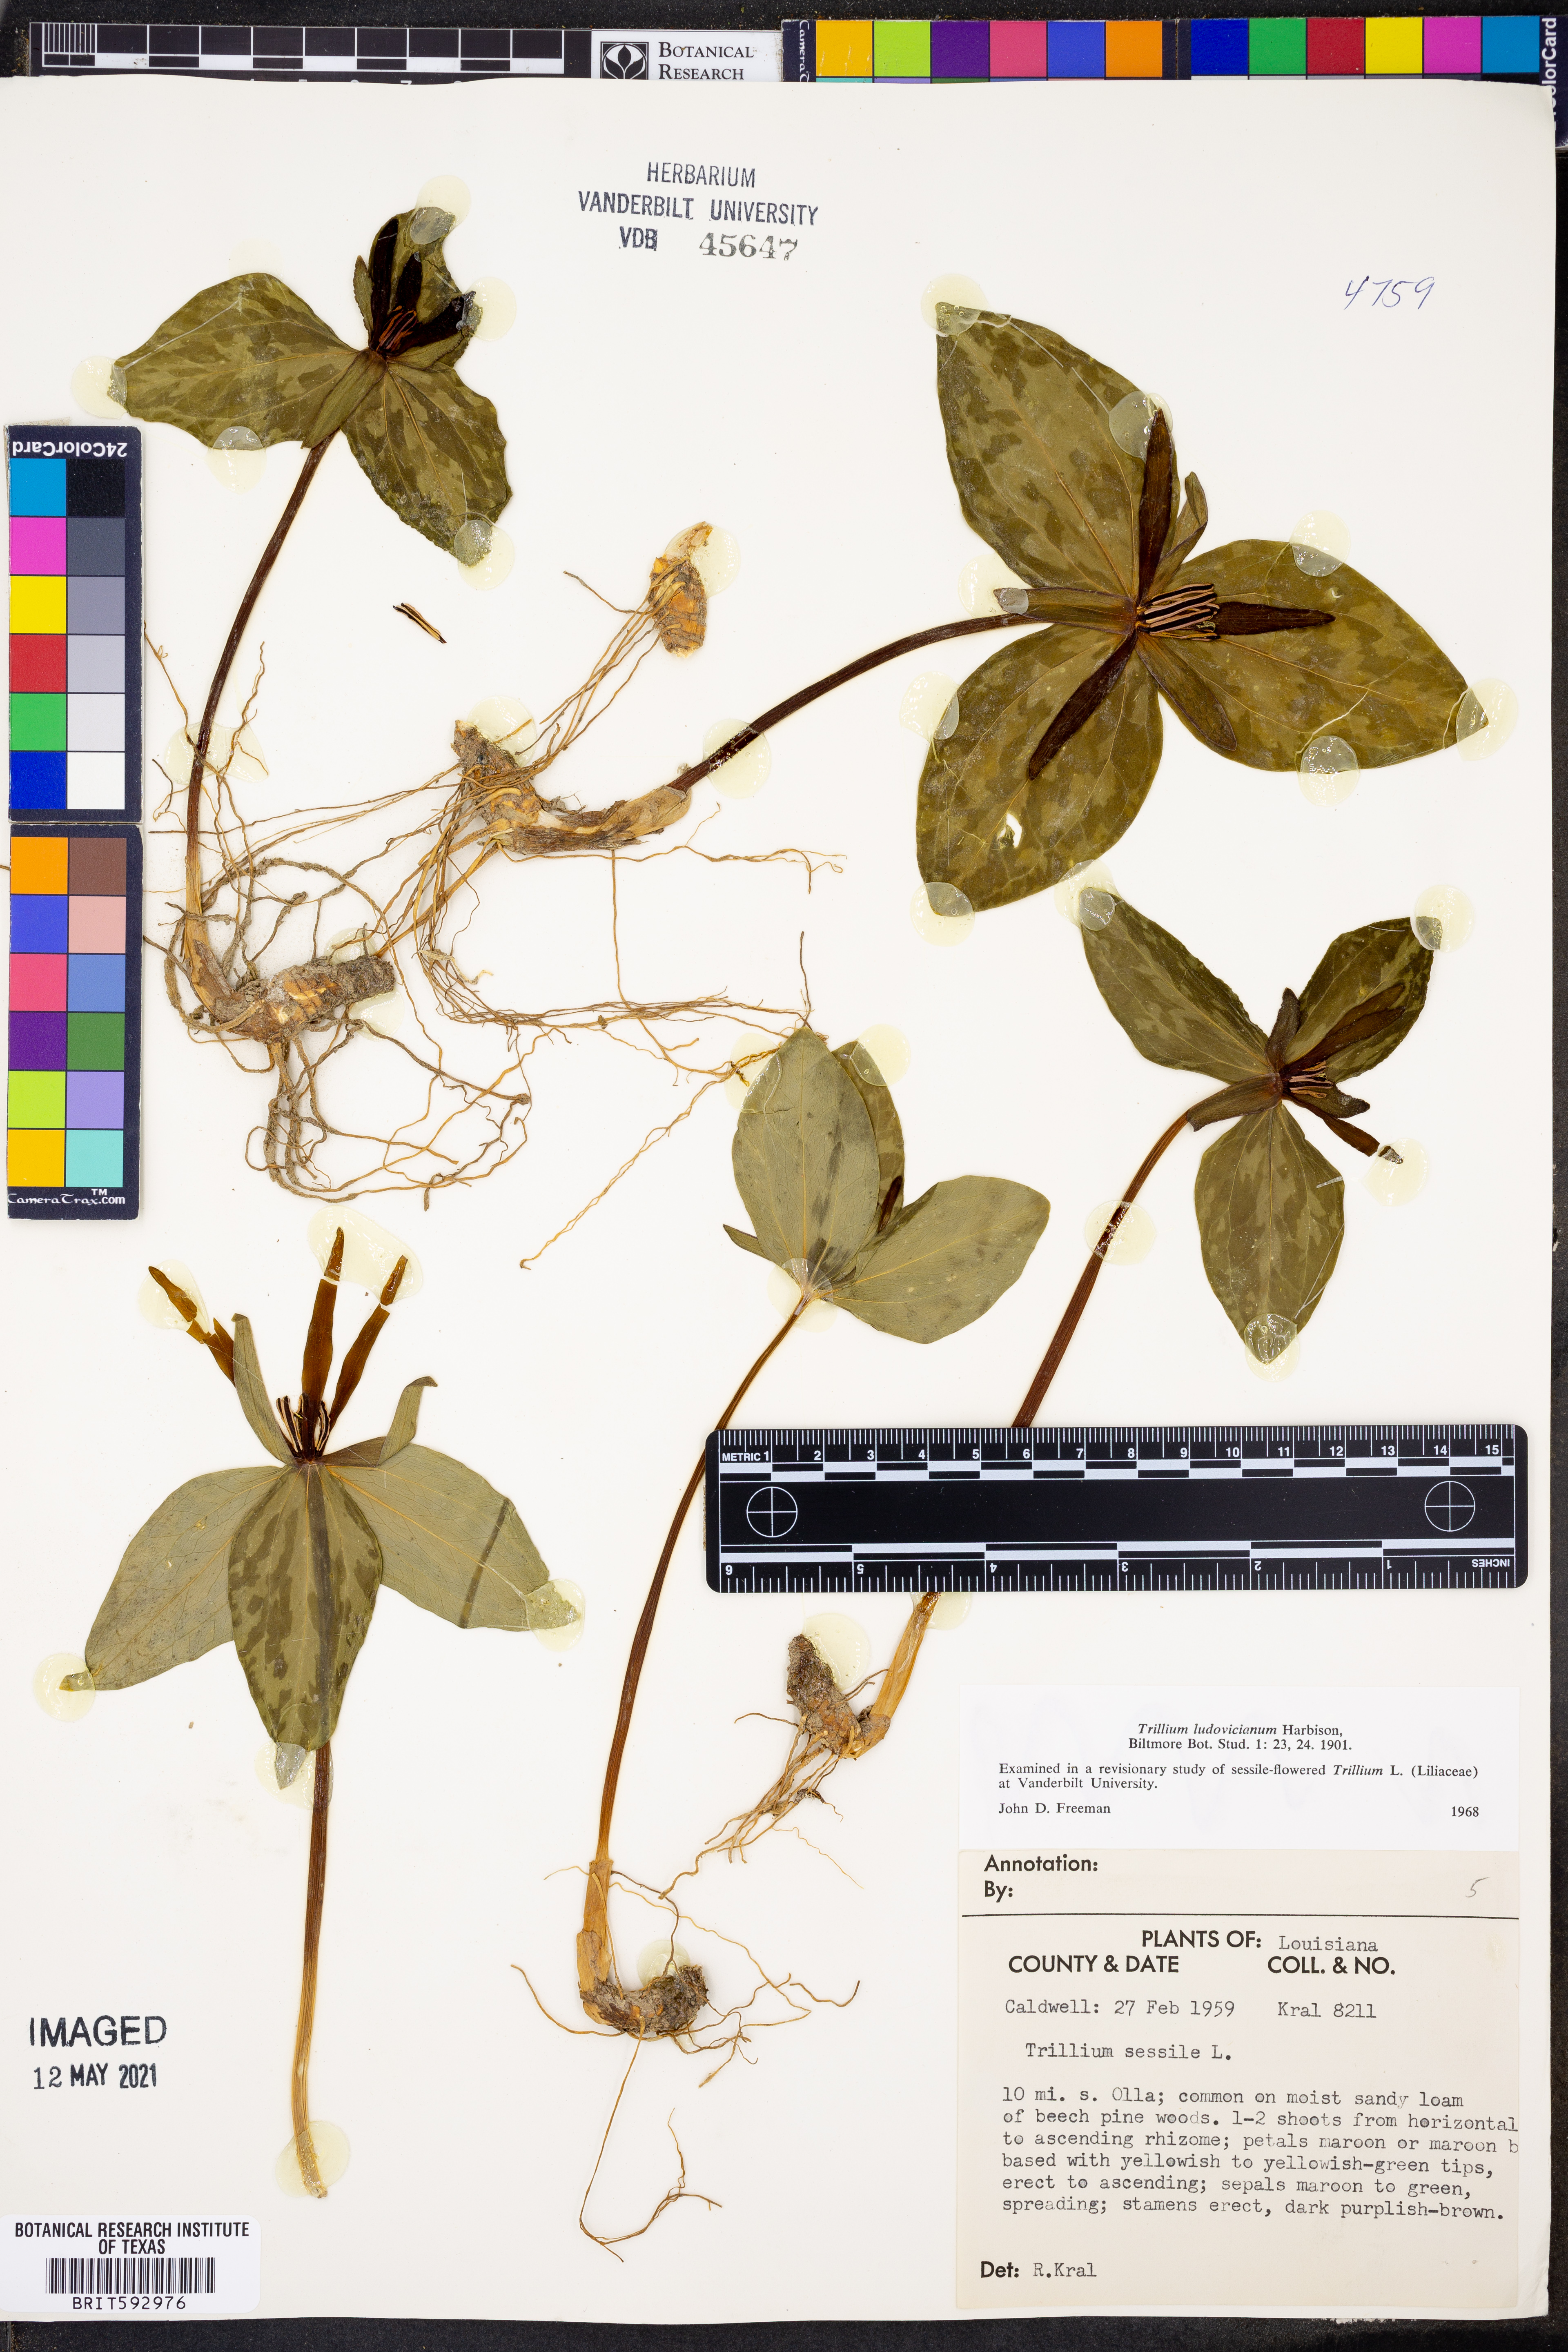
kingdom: Plantae
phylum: Tracheophyta
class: Liliopsida
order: Liliales
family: Melanthiaceae
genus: Trillium
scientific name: Trillium ludovicianum
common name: Louisiana toadshade
